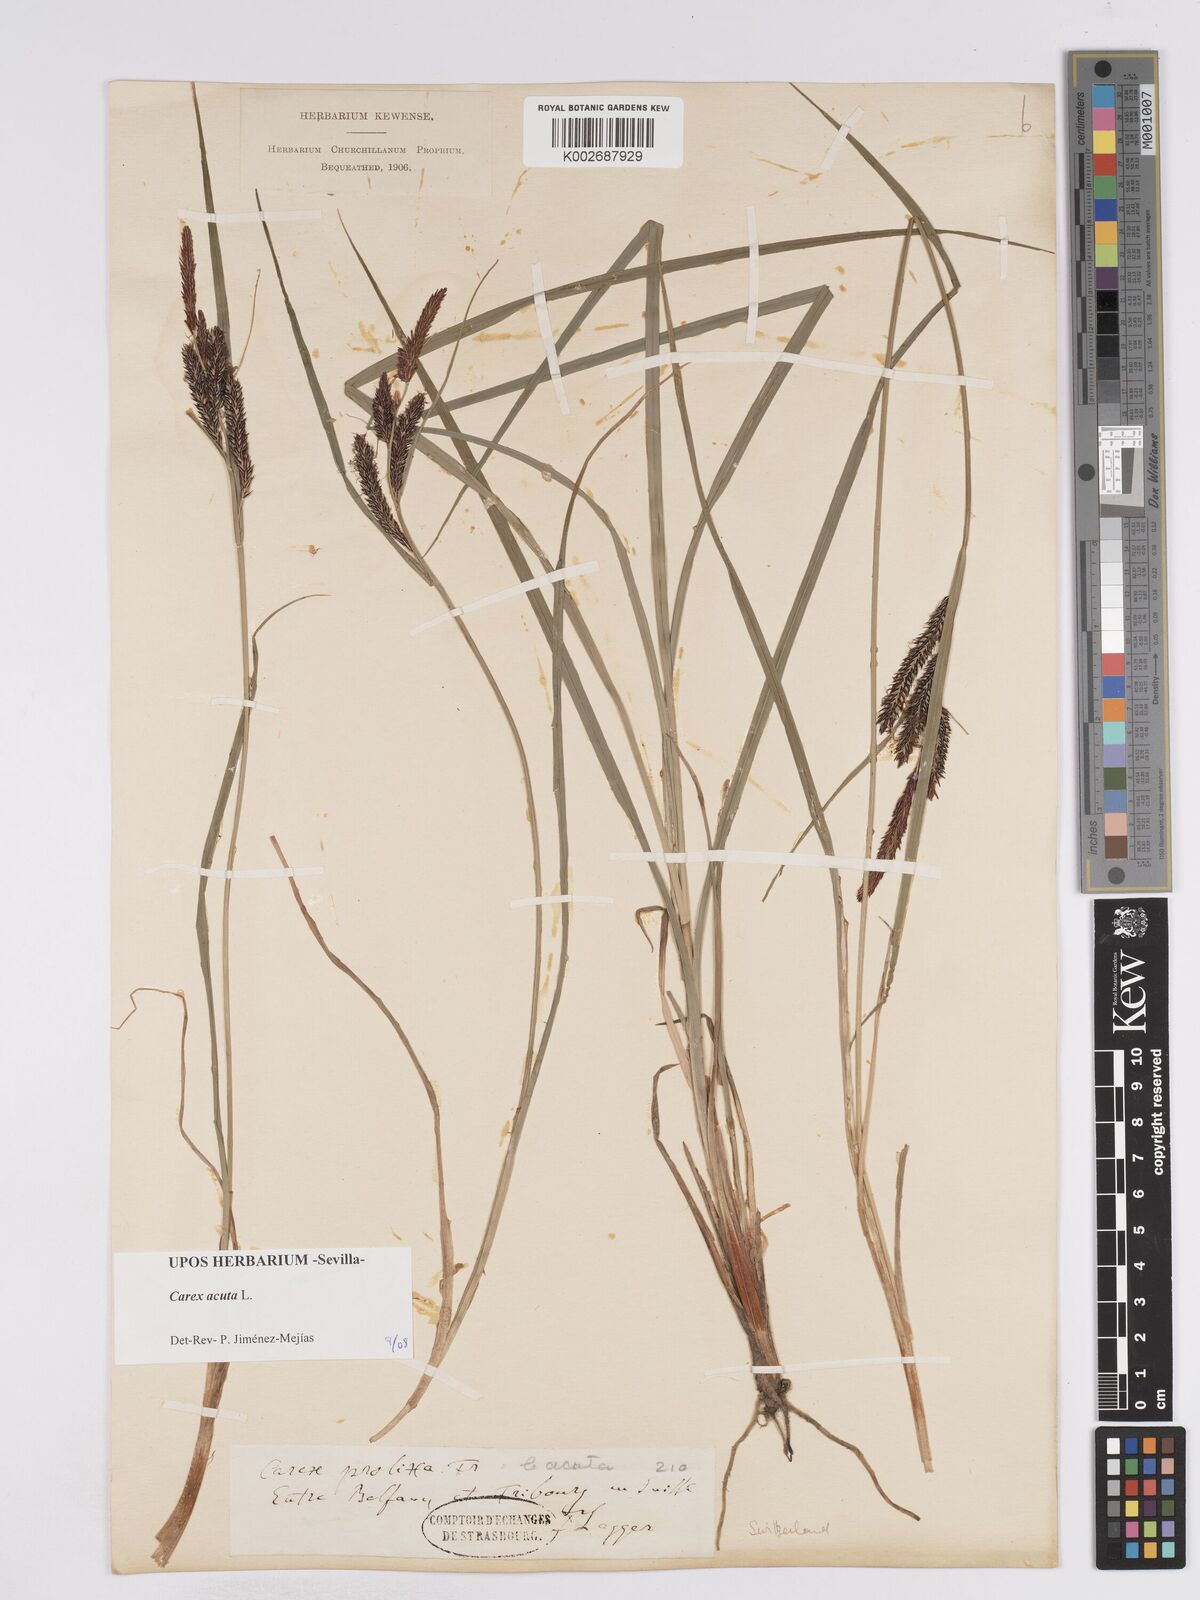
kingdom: Plantae
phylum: Tracheophyta
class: Liliopsida
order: Poales
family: Cyperaceae
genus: Carex
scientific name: Carex acuta
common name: Slender tufted-sedge
